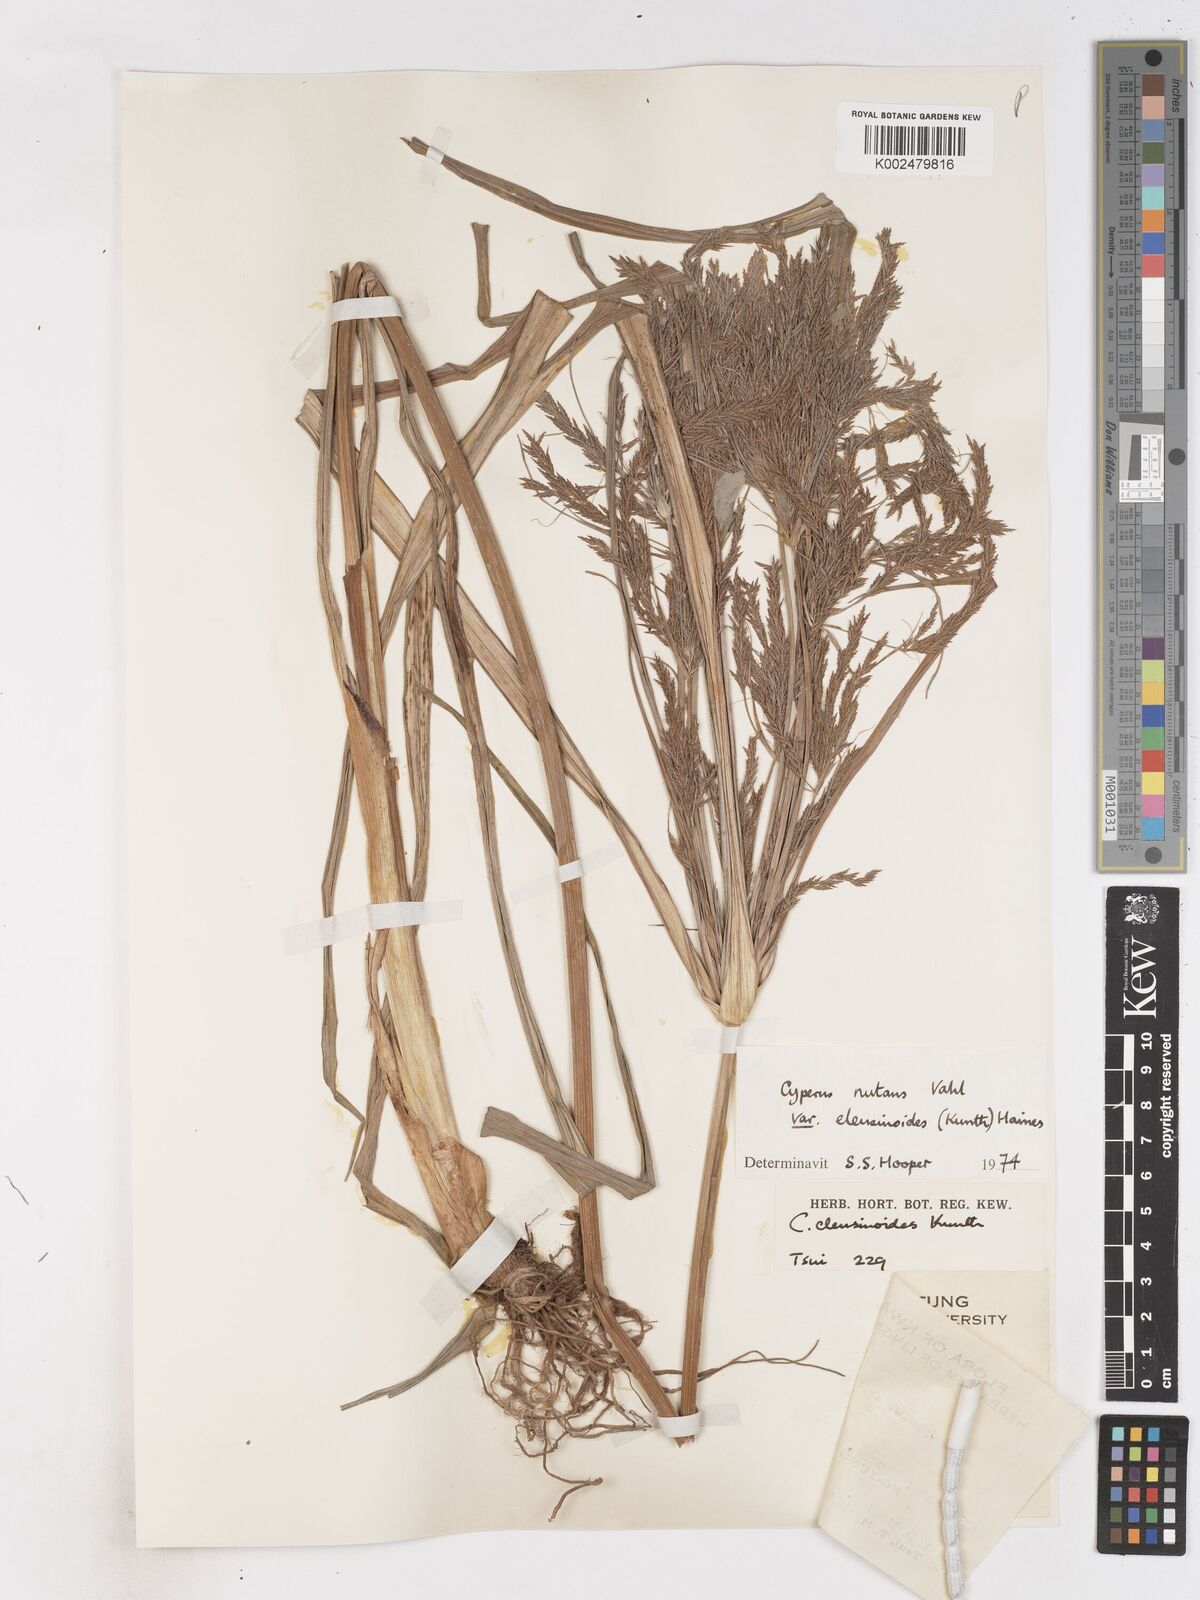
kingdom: Plantae
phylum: Tracheophyta
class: Liliopsida
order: Poales
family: Cyperaceae
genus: Cyperus
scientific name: Cyperus nutans
